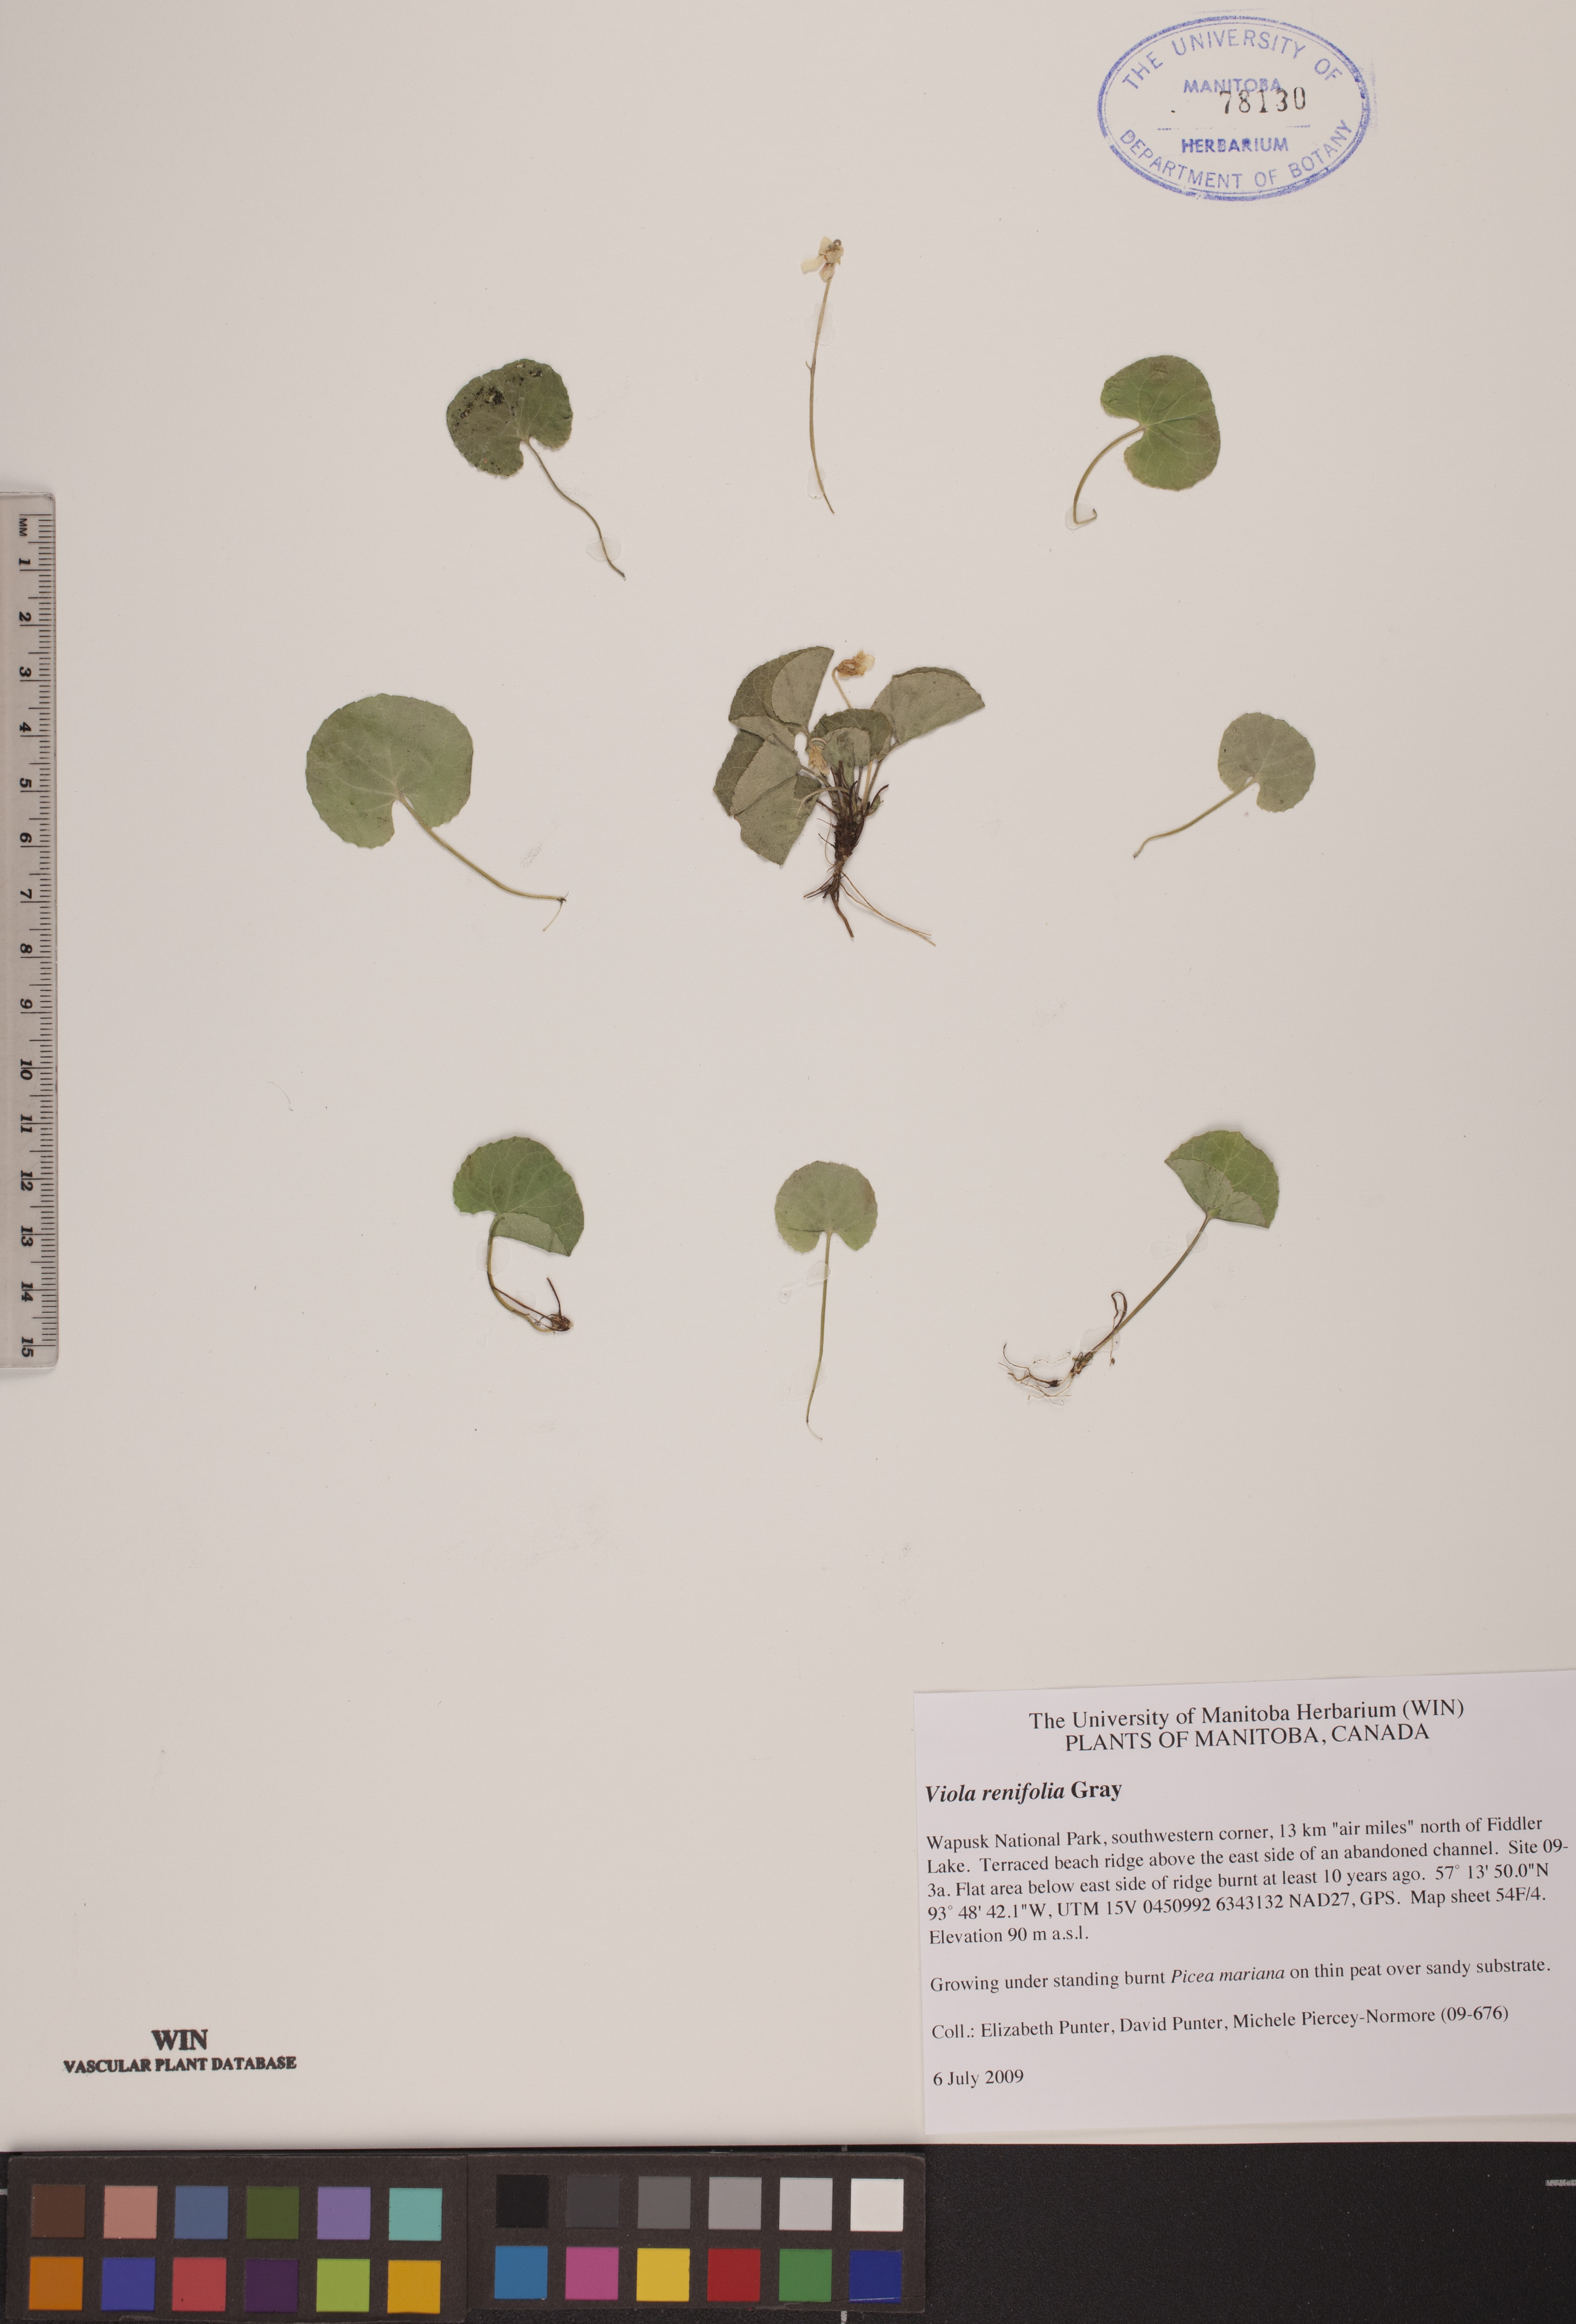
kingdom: Plantae
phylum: Tracheophyta
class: Magnoliopsida
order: Malpighiales
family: Violaceae
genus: Viola
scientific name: Viola renifolia
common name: Kidney-leaf violet
